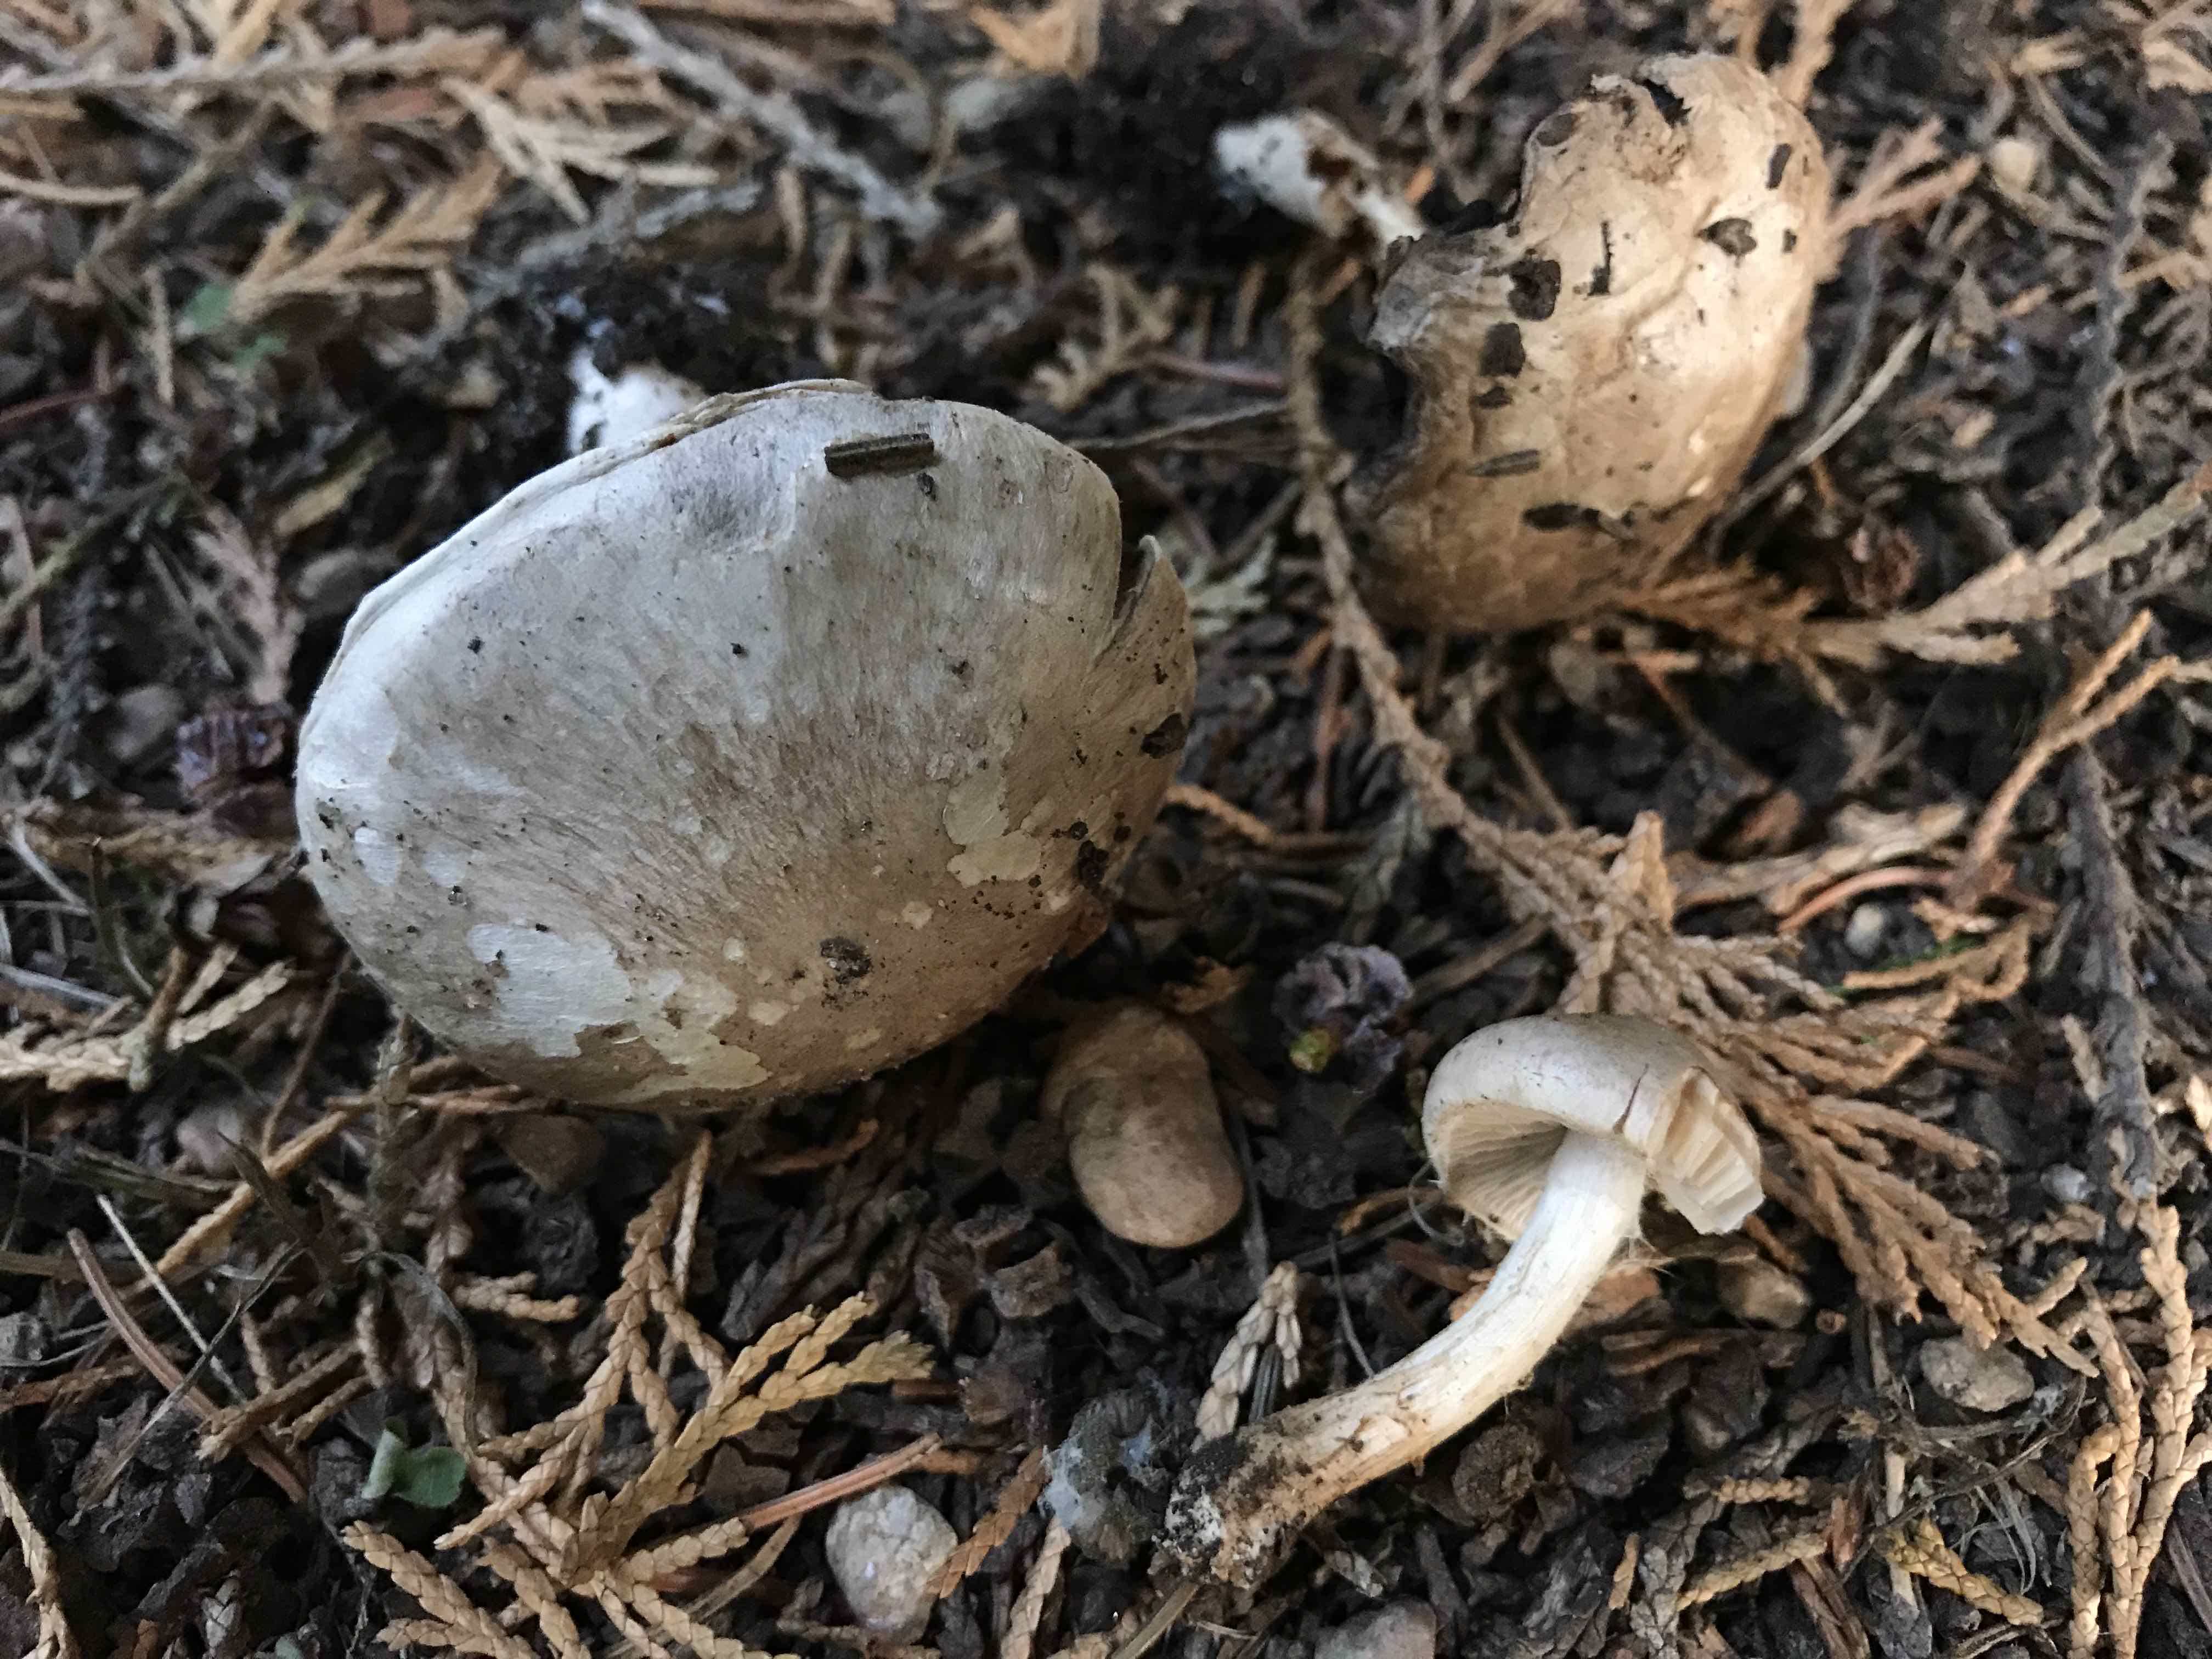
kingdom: Fungi
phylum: Basidiomycota
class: Agaricomycetes
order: Agaricales
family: Agaricaceae
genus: Agaricus
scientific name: Agaricus
